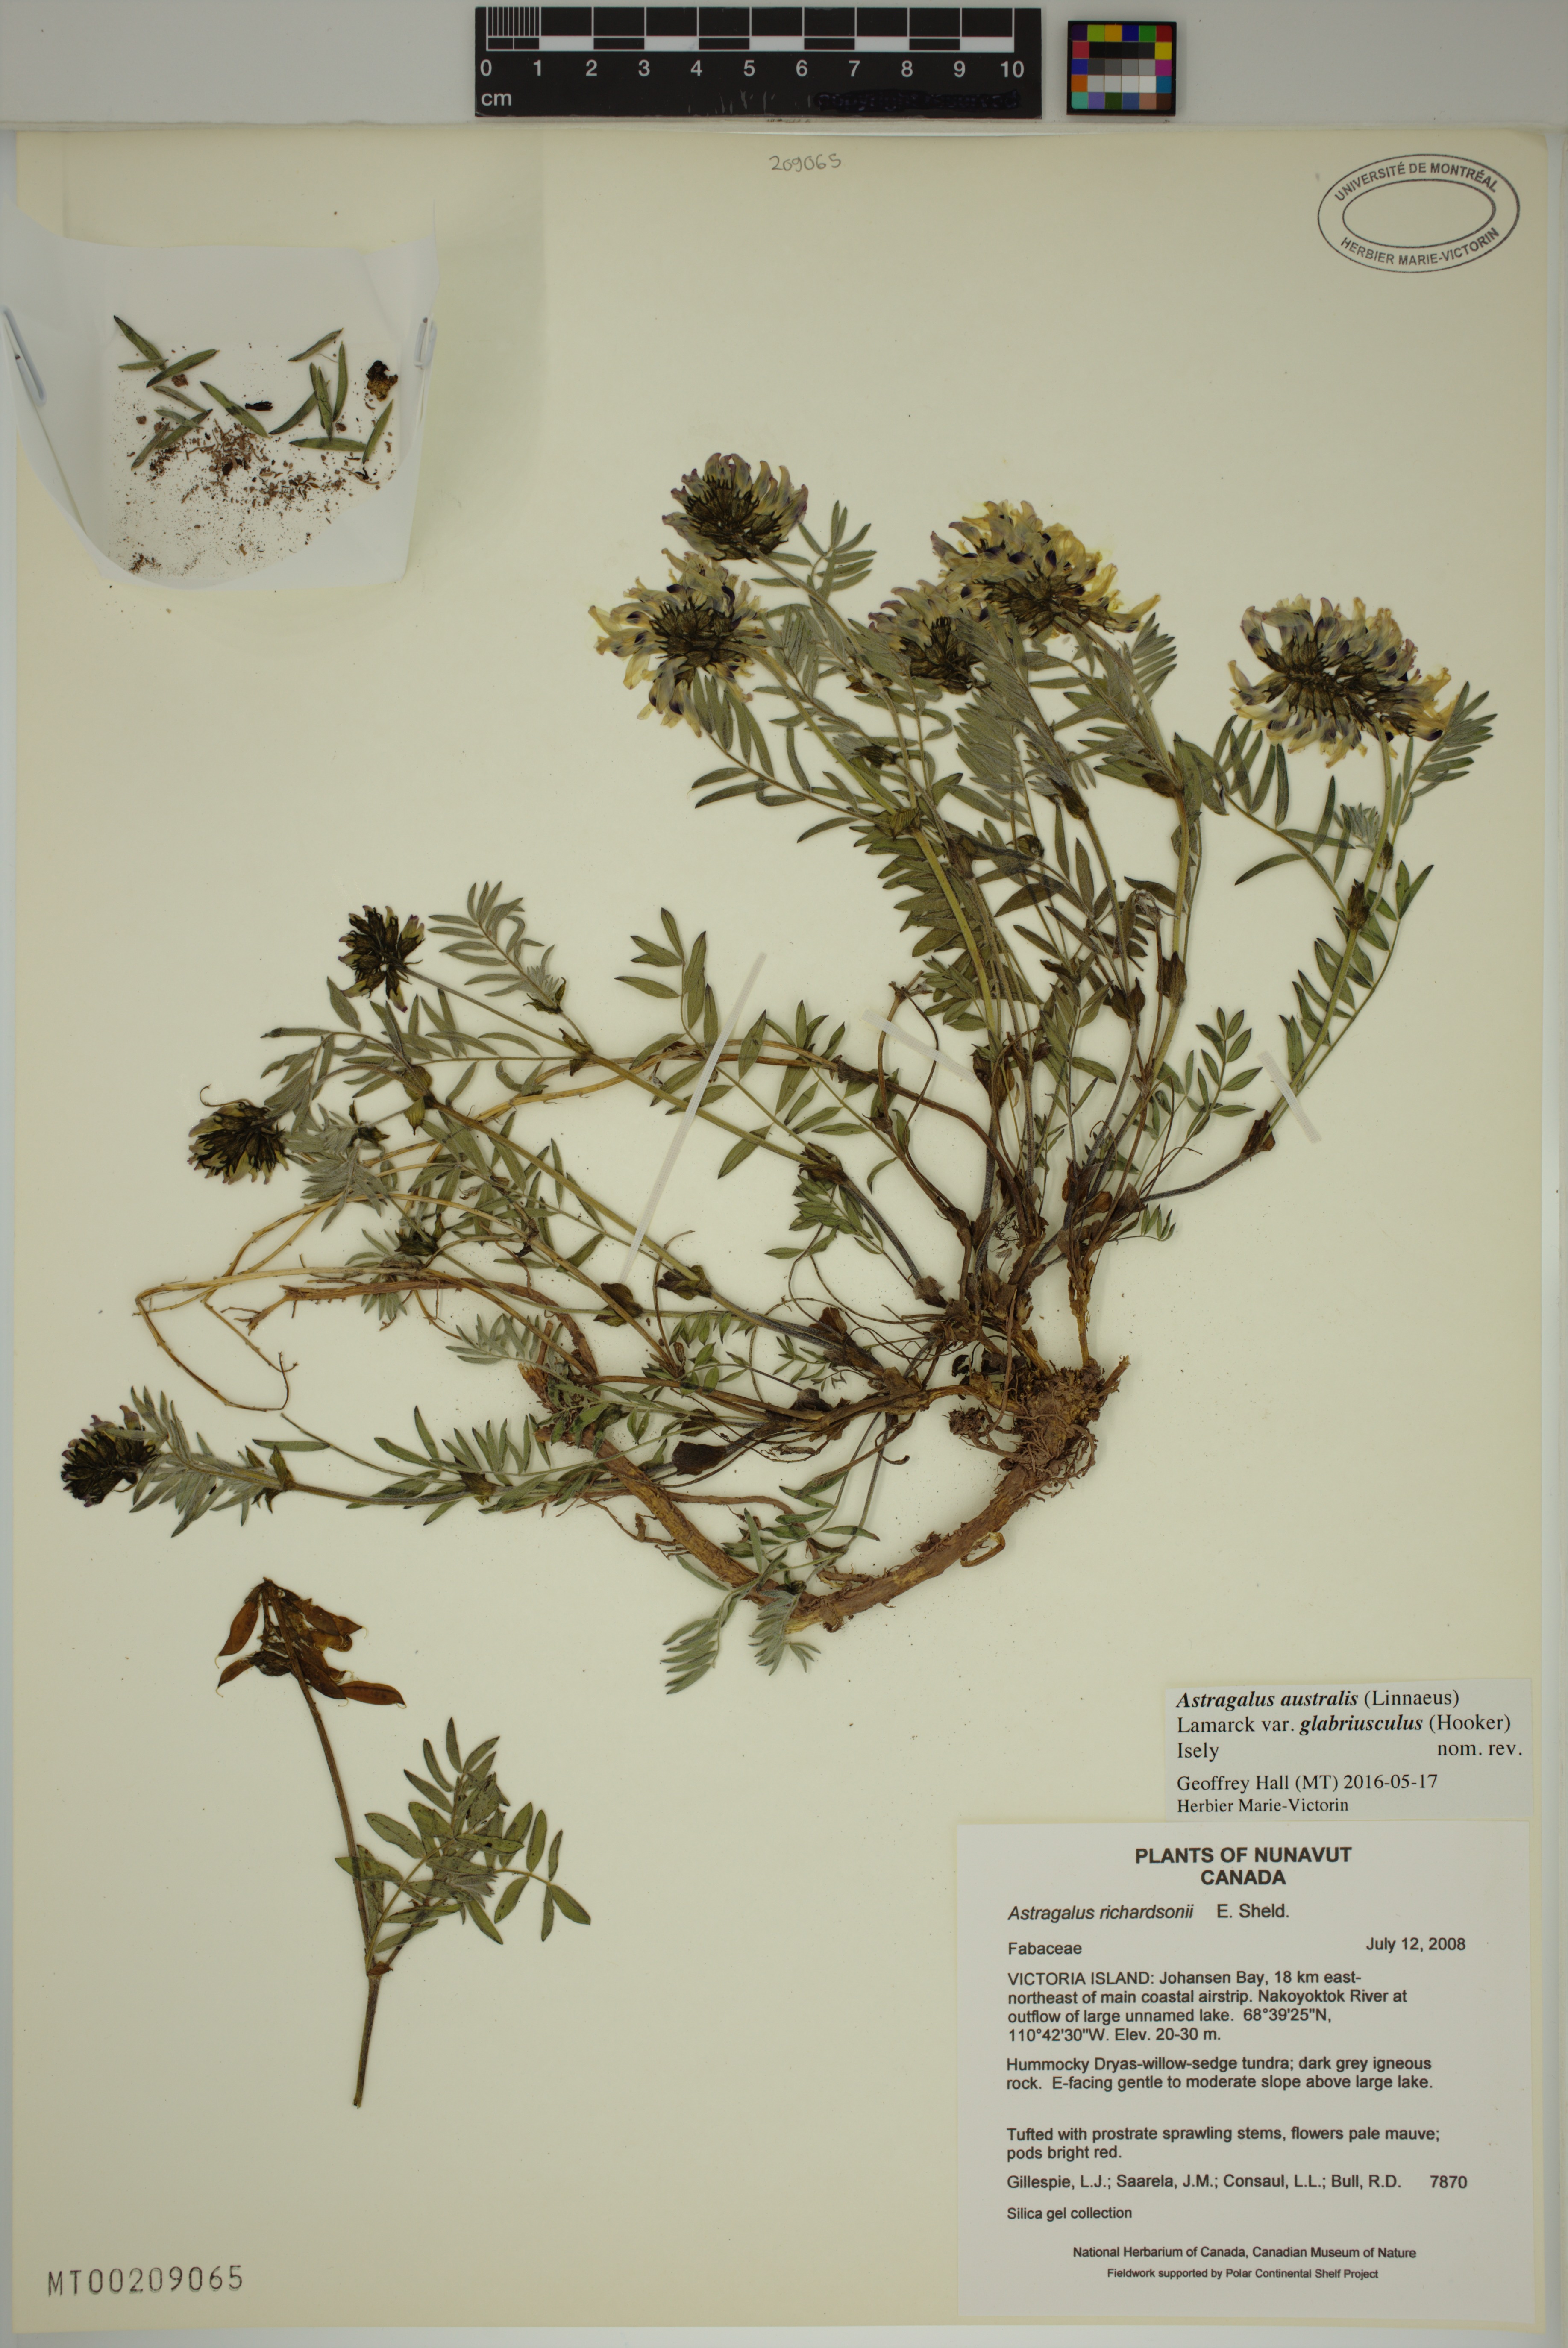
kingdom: Plantae
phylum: Tracheophyta
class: Magnoliopsida
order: Fabales
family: Fabaceae
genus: Astragalus
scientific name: Astragalus aboriginorum
